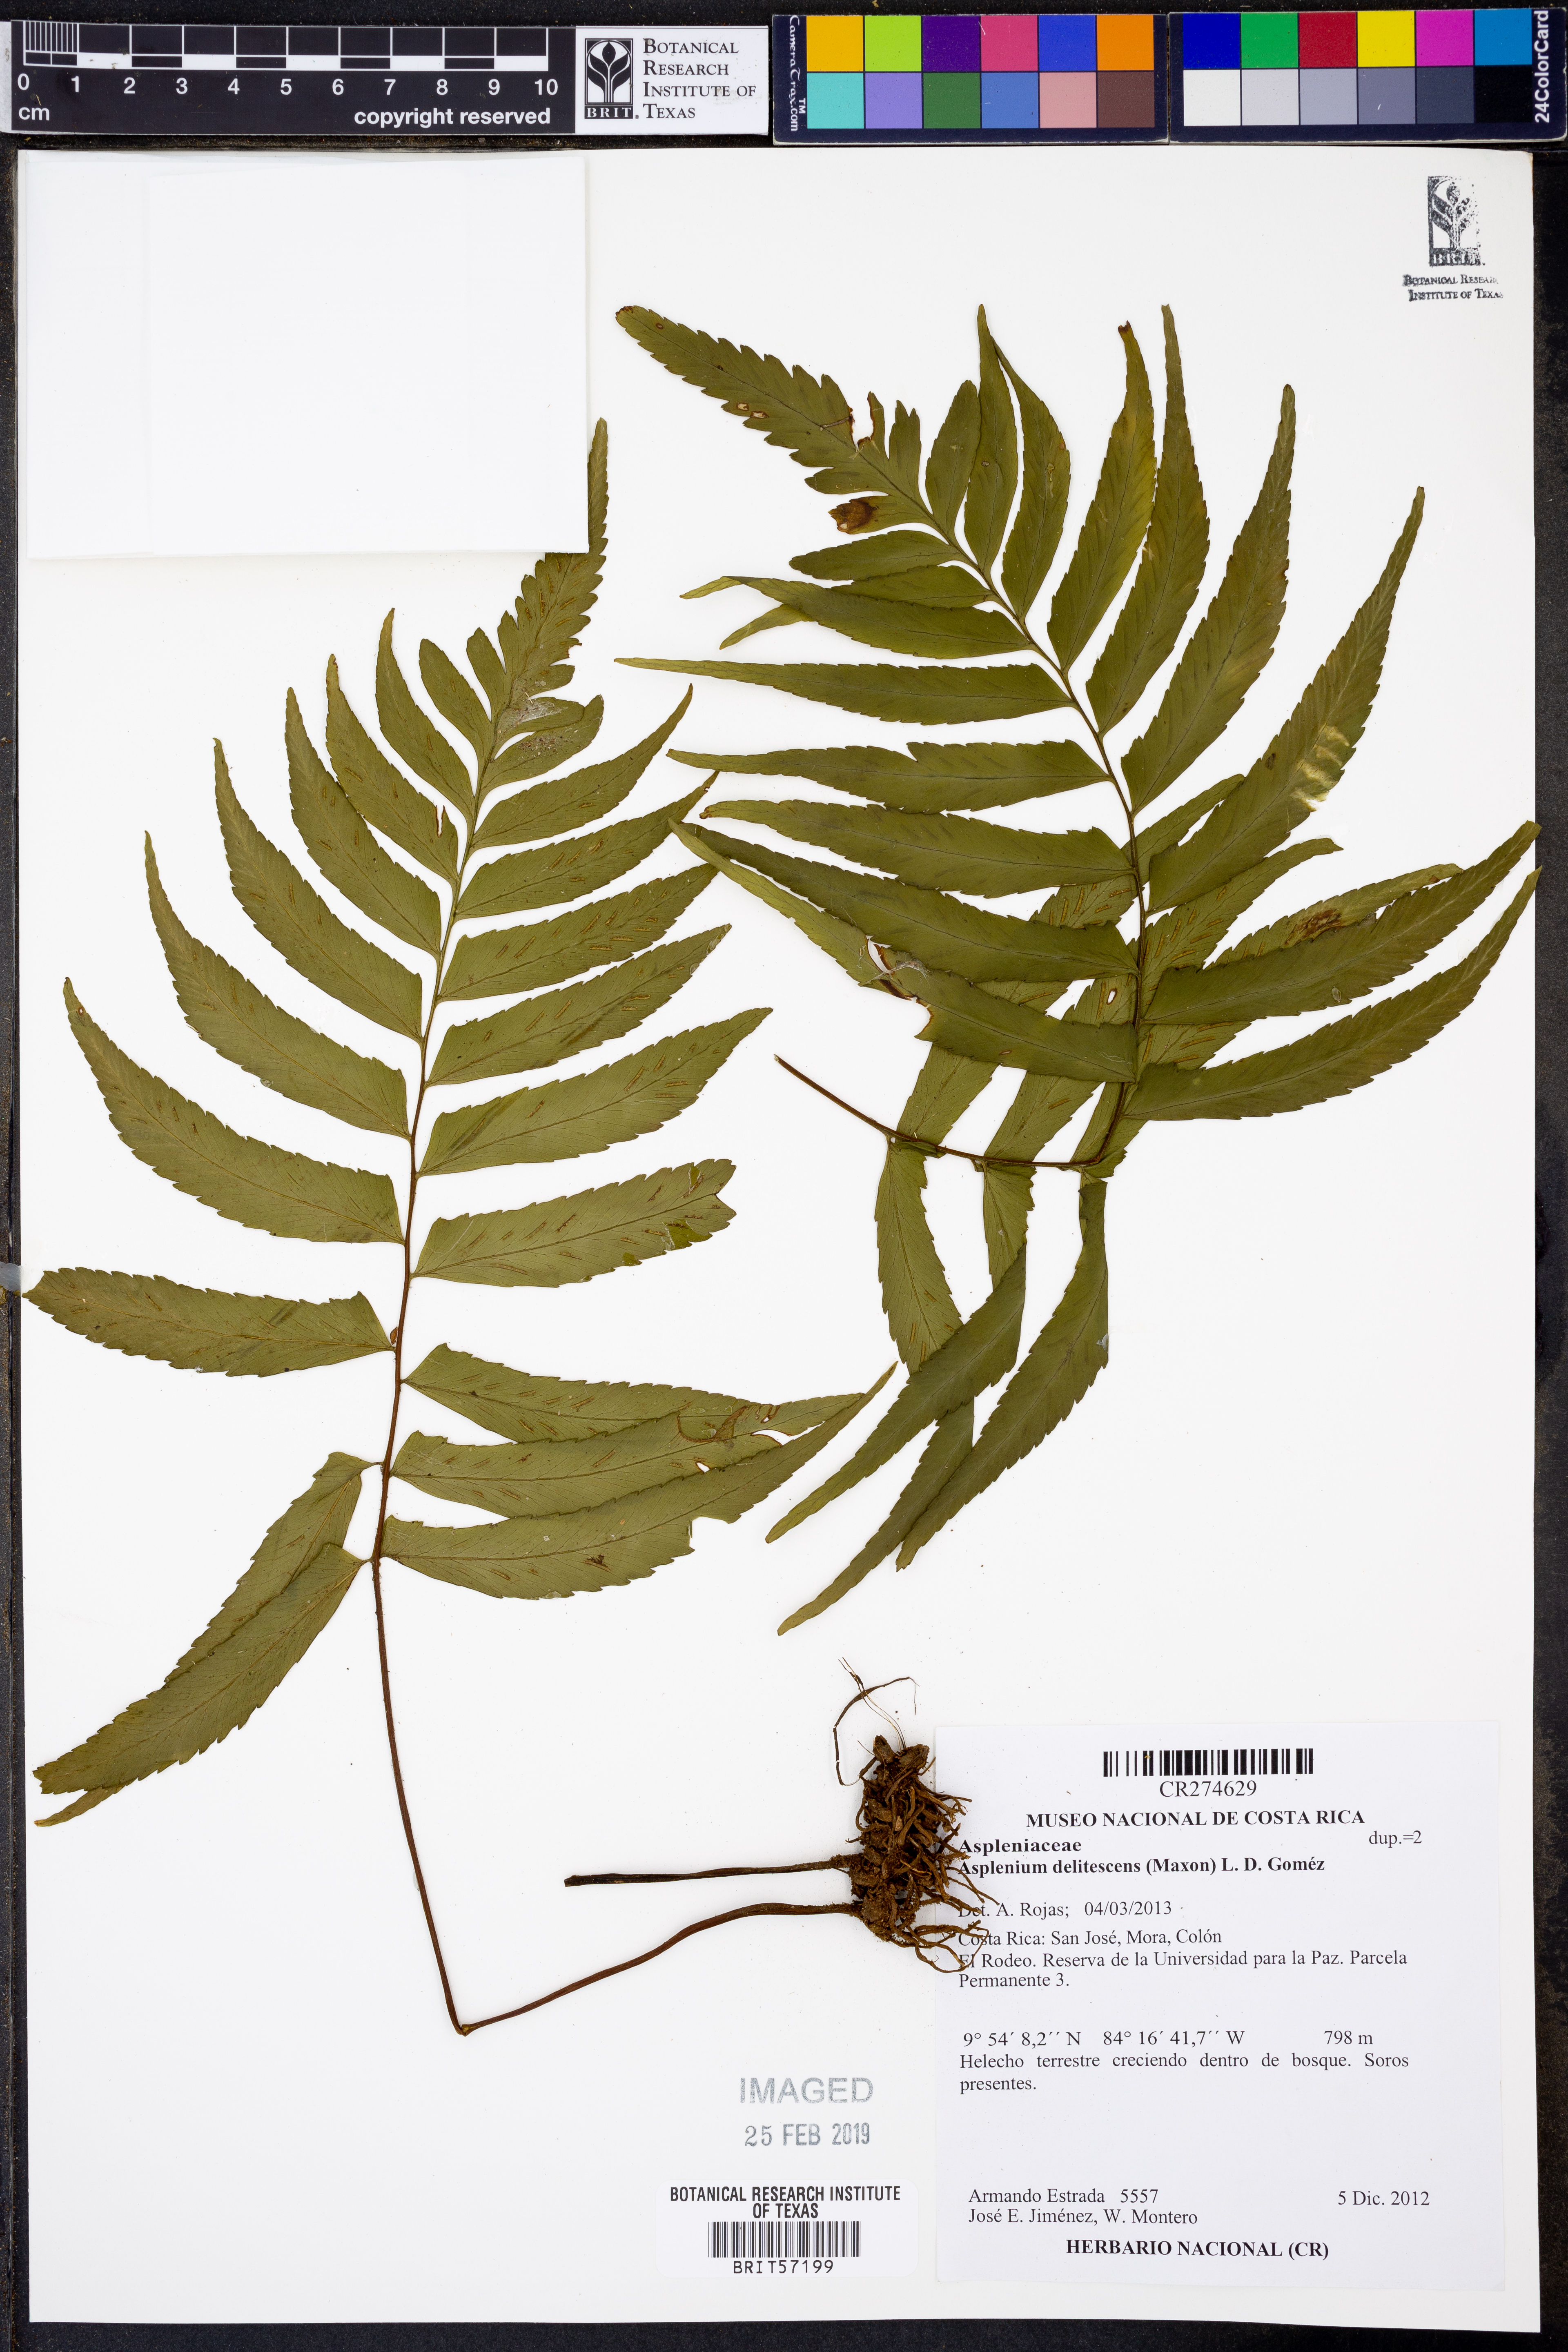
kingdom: Plantae
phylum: Tracheophyta
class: Polypodiopsida
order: Polypodiales
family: Aspleniaceae
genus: Hymenasplenium
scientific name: Hymenasplenium delitescens
